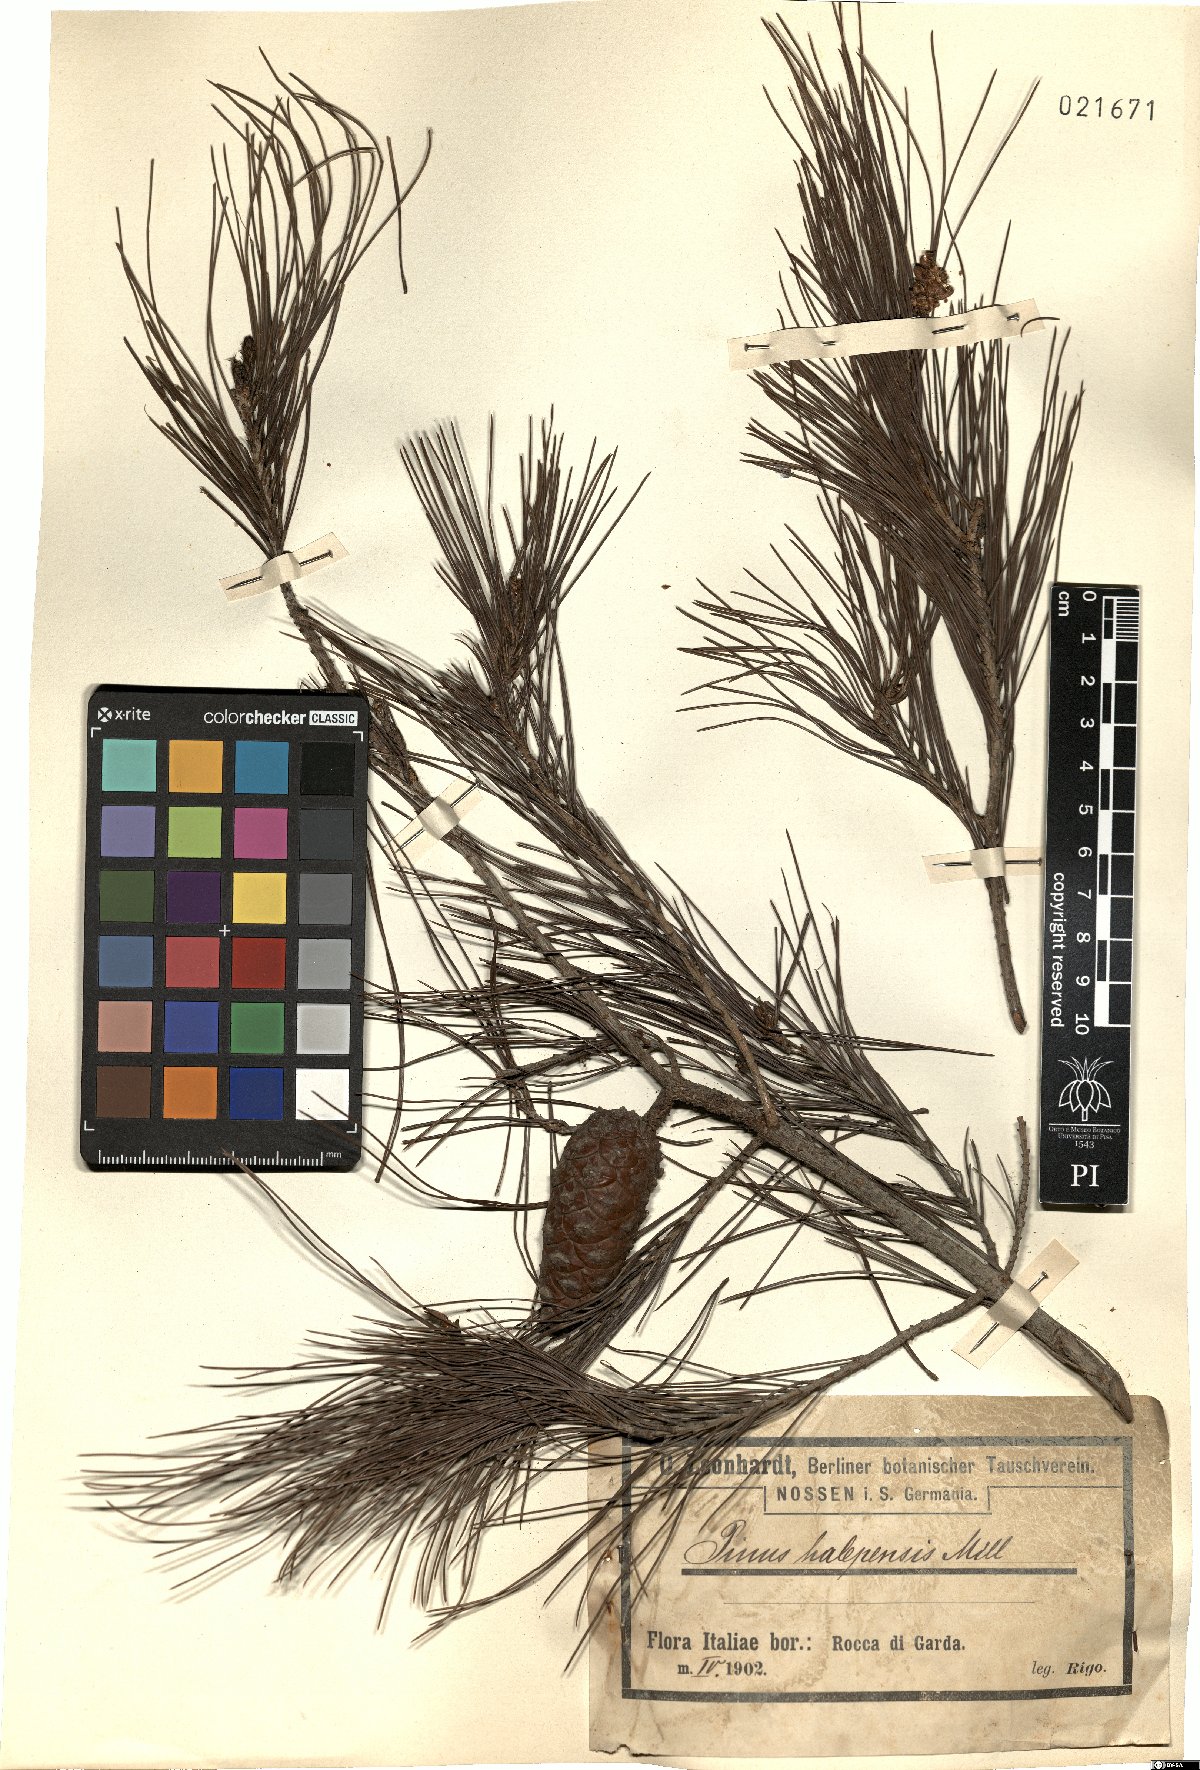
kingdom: Plantae
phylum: Tracheophyta
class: Pinopsida
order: Pinales
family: Pinaceae
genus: Pinus
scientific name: Pinus halepensis
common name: Aleppo pine
